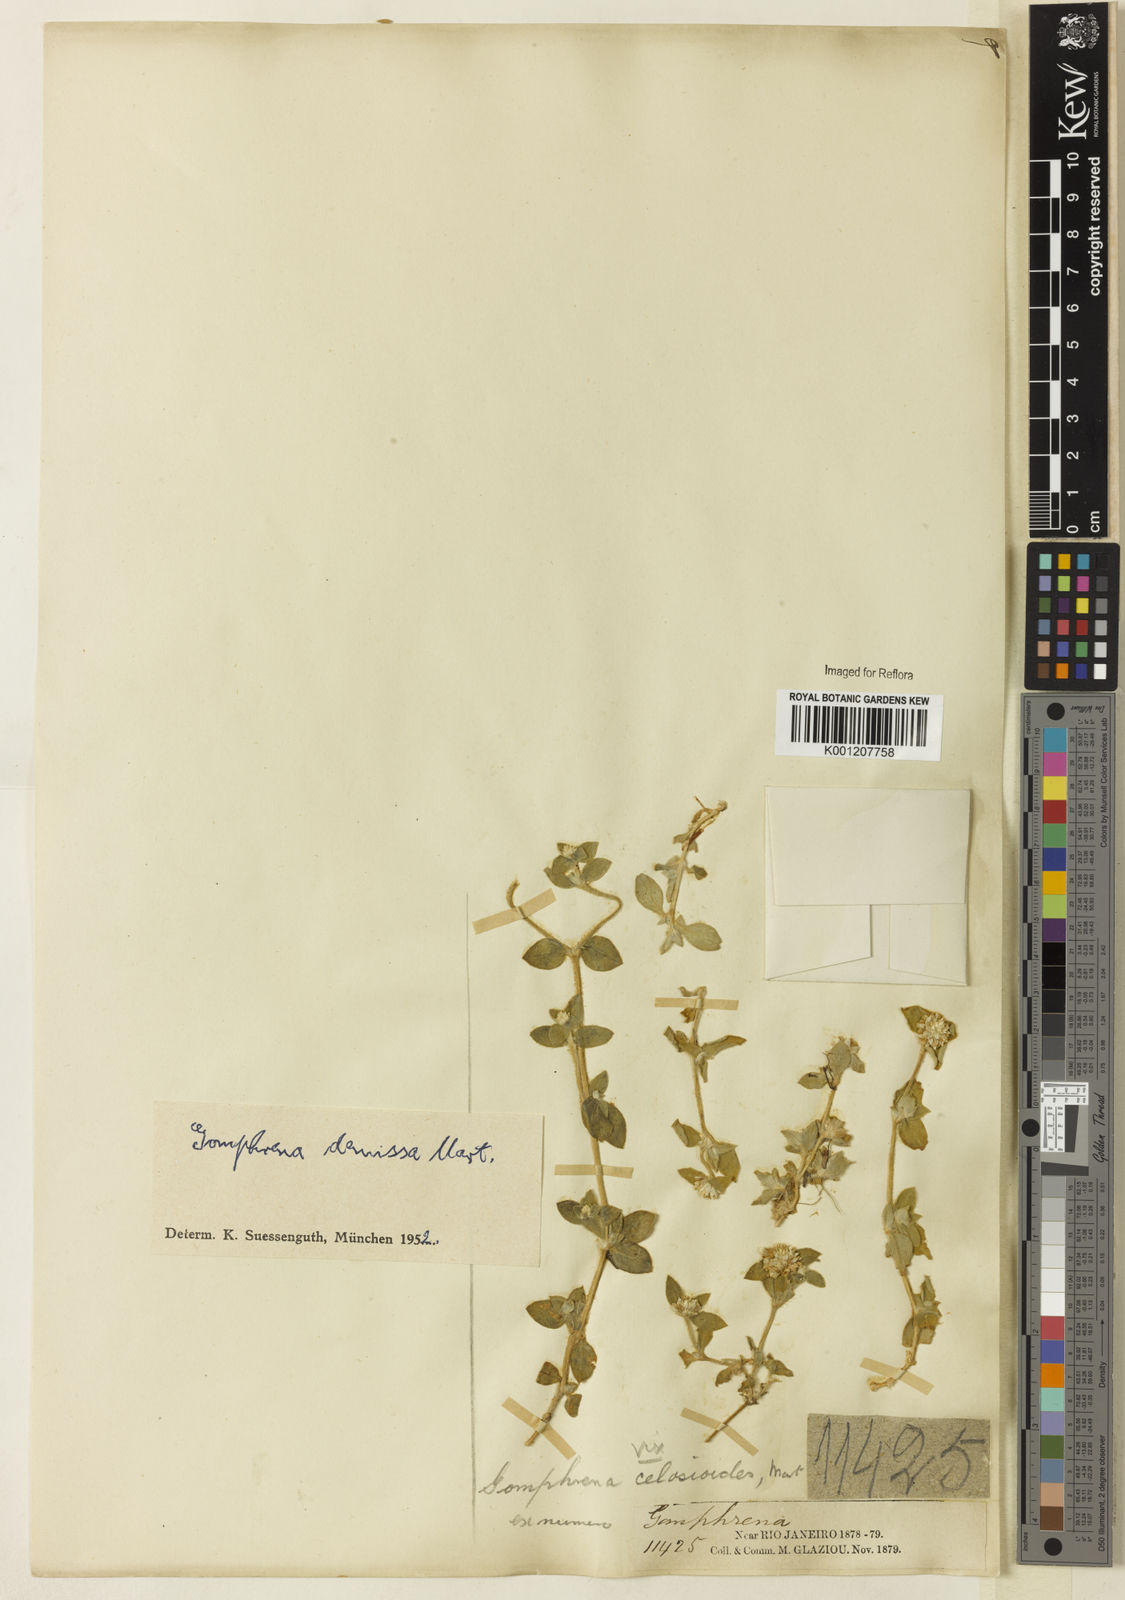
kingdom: Plantae
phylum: Tracheophyta
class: Magnoliopsida
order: Caryophyllales
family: Amaranthaceae
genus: Gomphrena
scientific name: Gomphrena demissa
